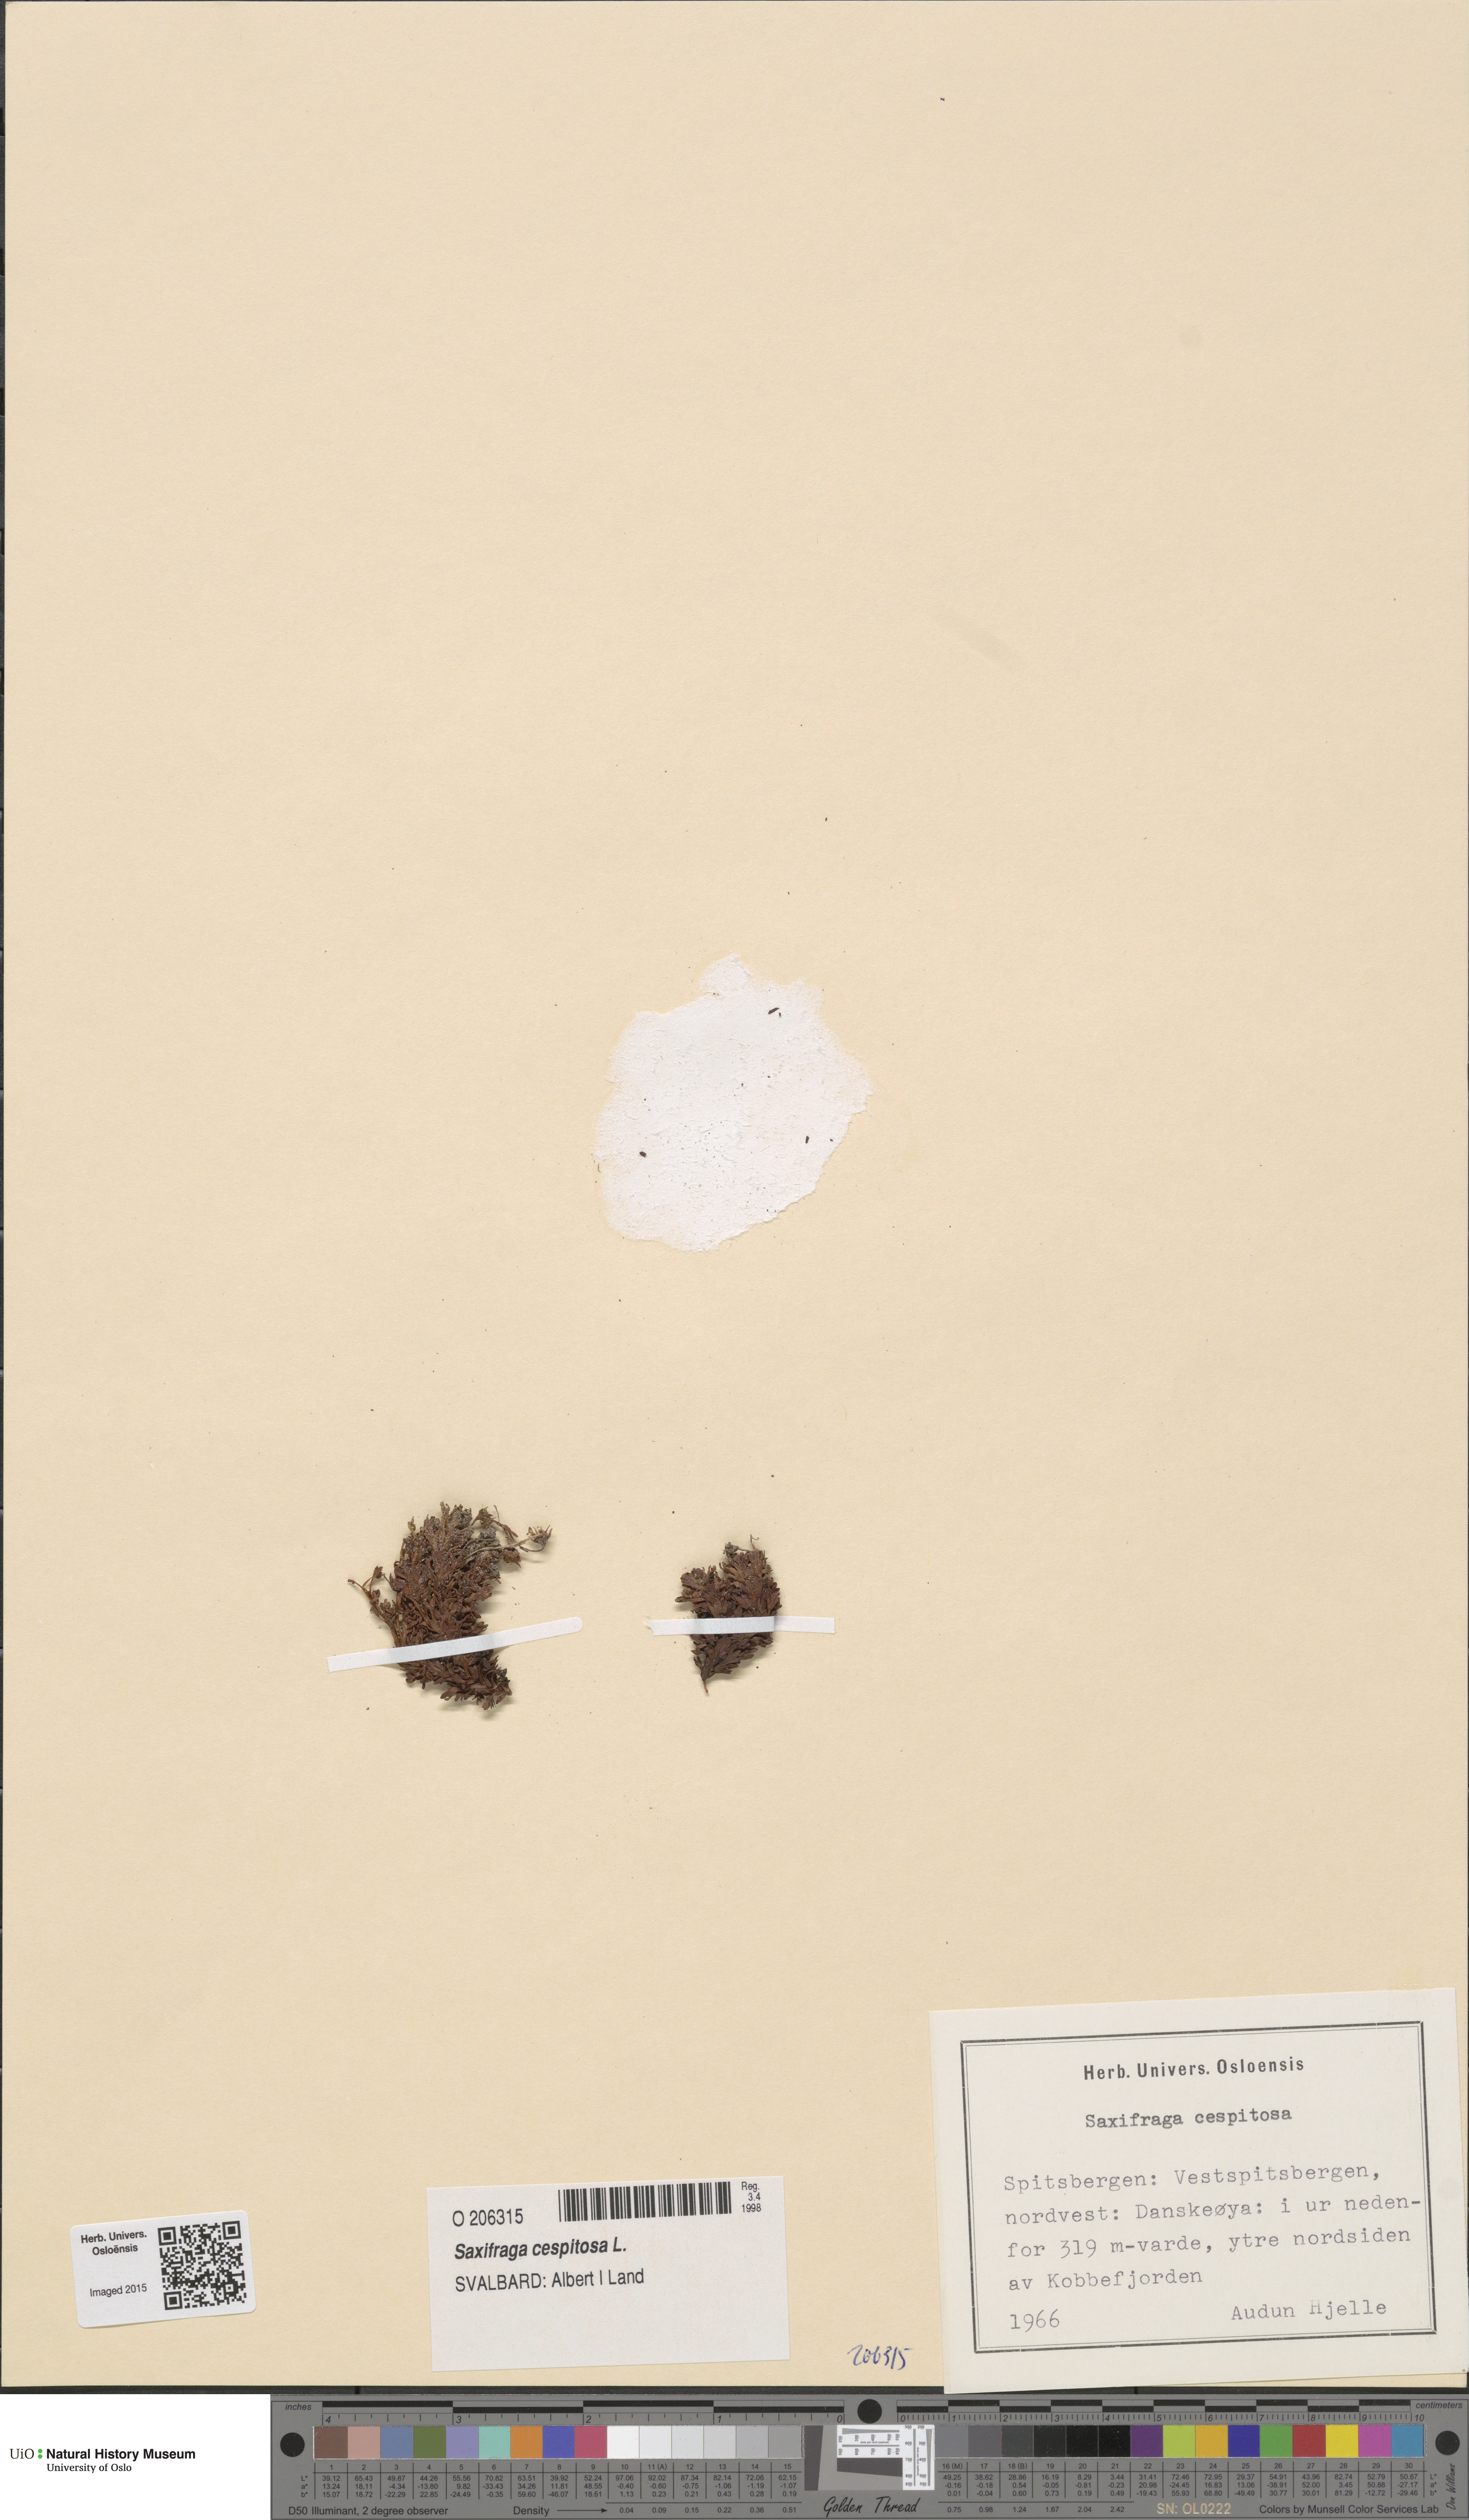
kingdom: Plantae
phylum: Tracheophyta
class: Magnoliopsida
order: Saxifragales
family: Saxifragaceae
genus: Saxifraga
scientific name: Saxifraga cespitosa
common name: Tufted saxifrage
